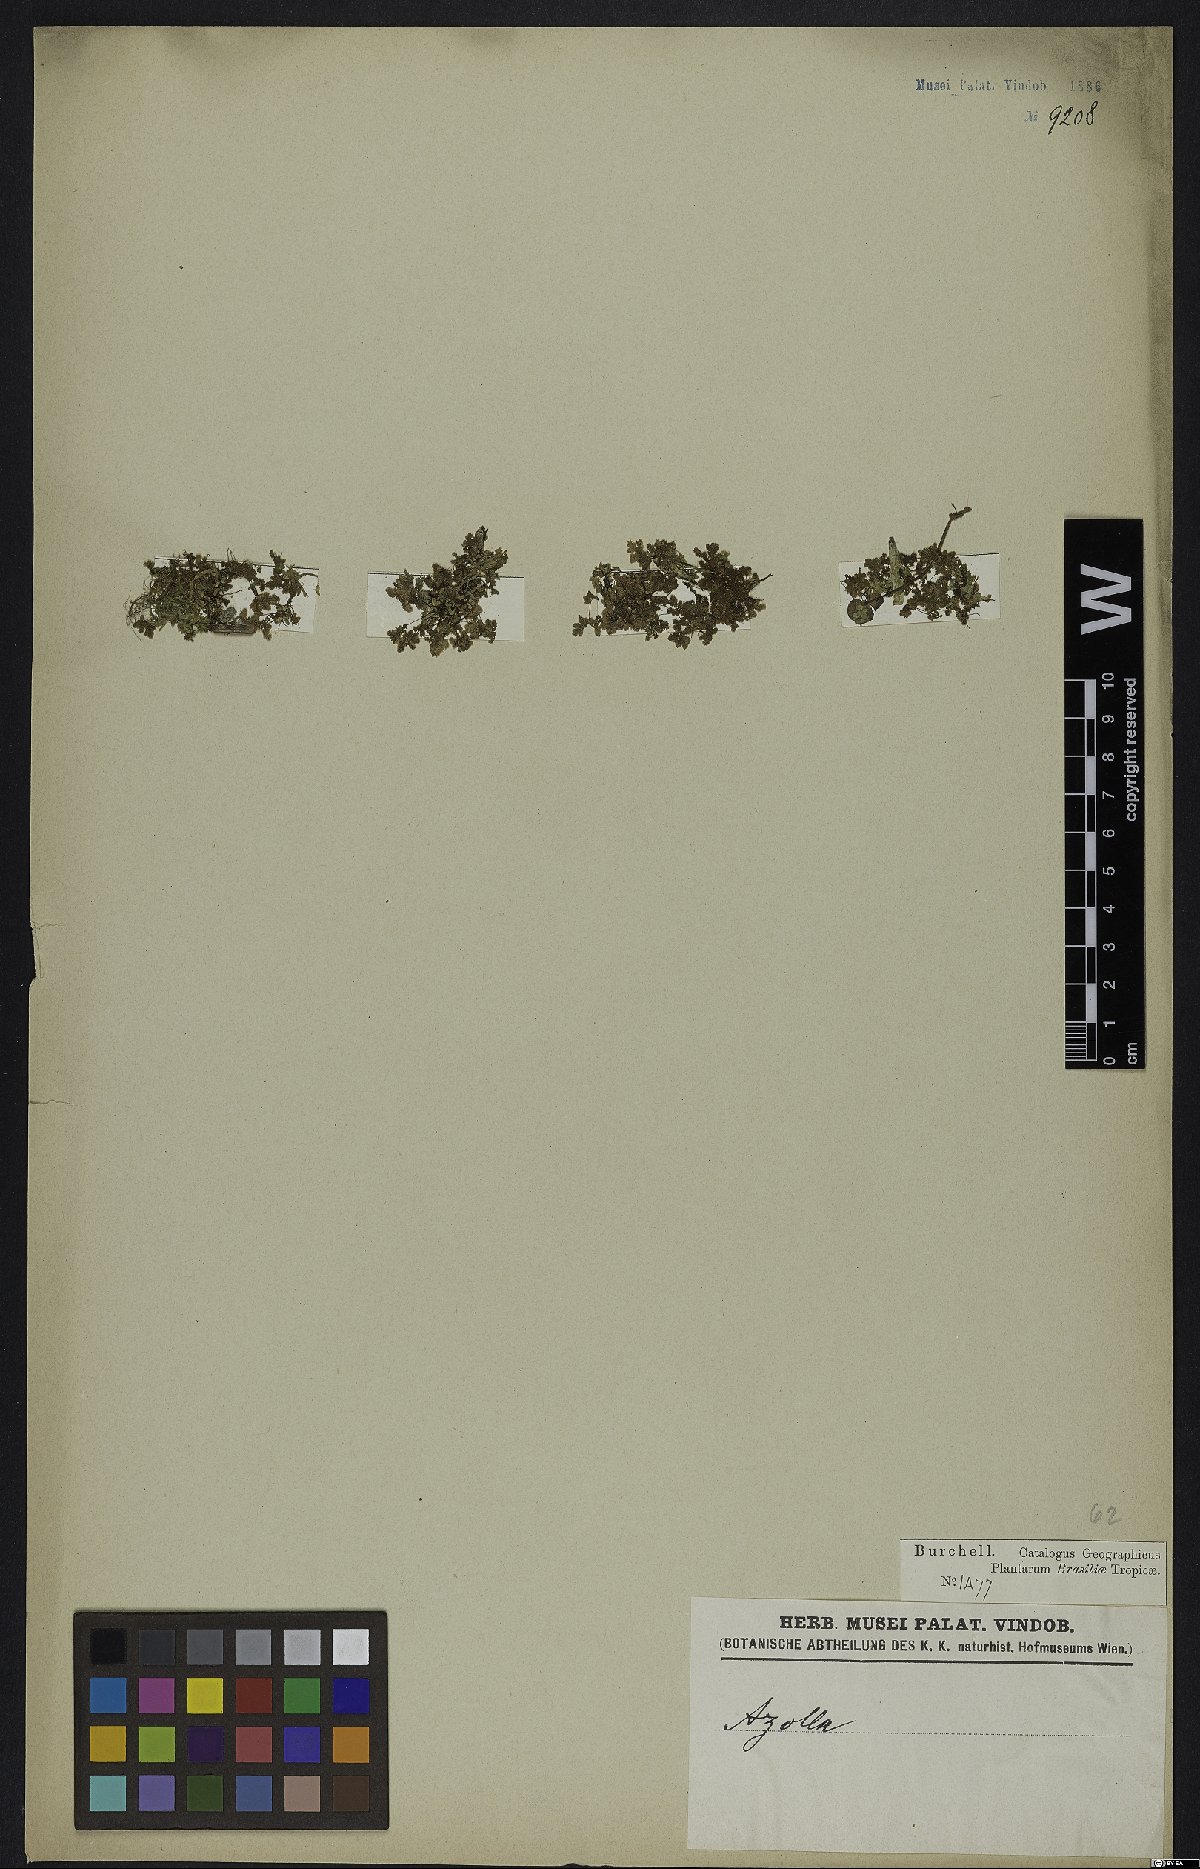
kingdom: Plantae
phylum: Tracheophyta
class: Polypodiopsida
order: Salviniales
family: Salviniaceae
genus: Azolla
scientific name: Azolla
